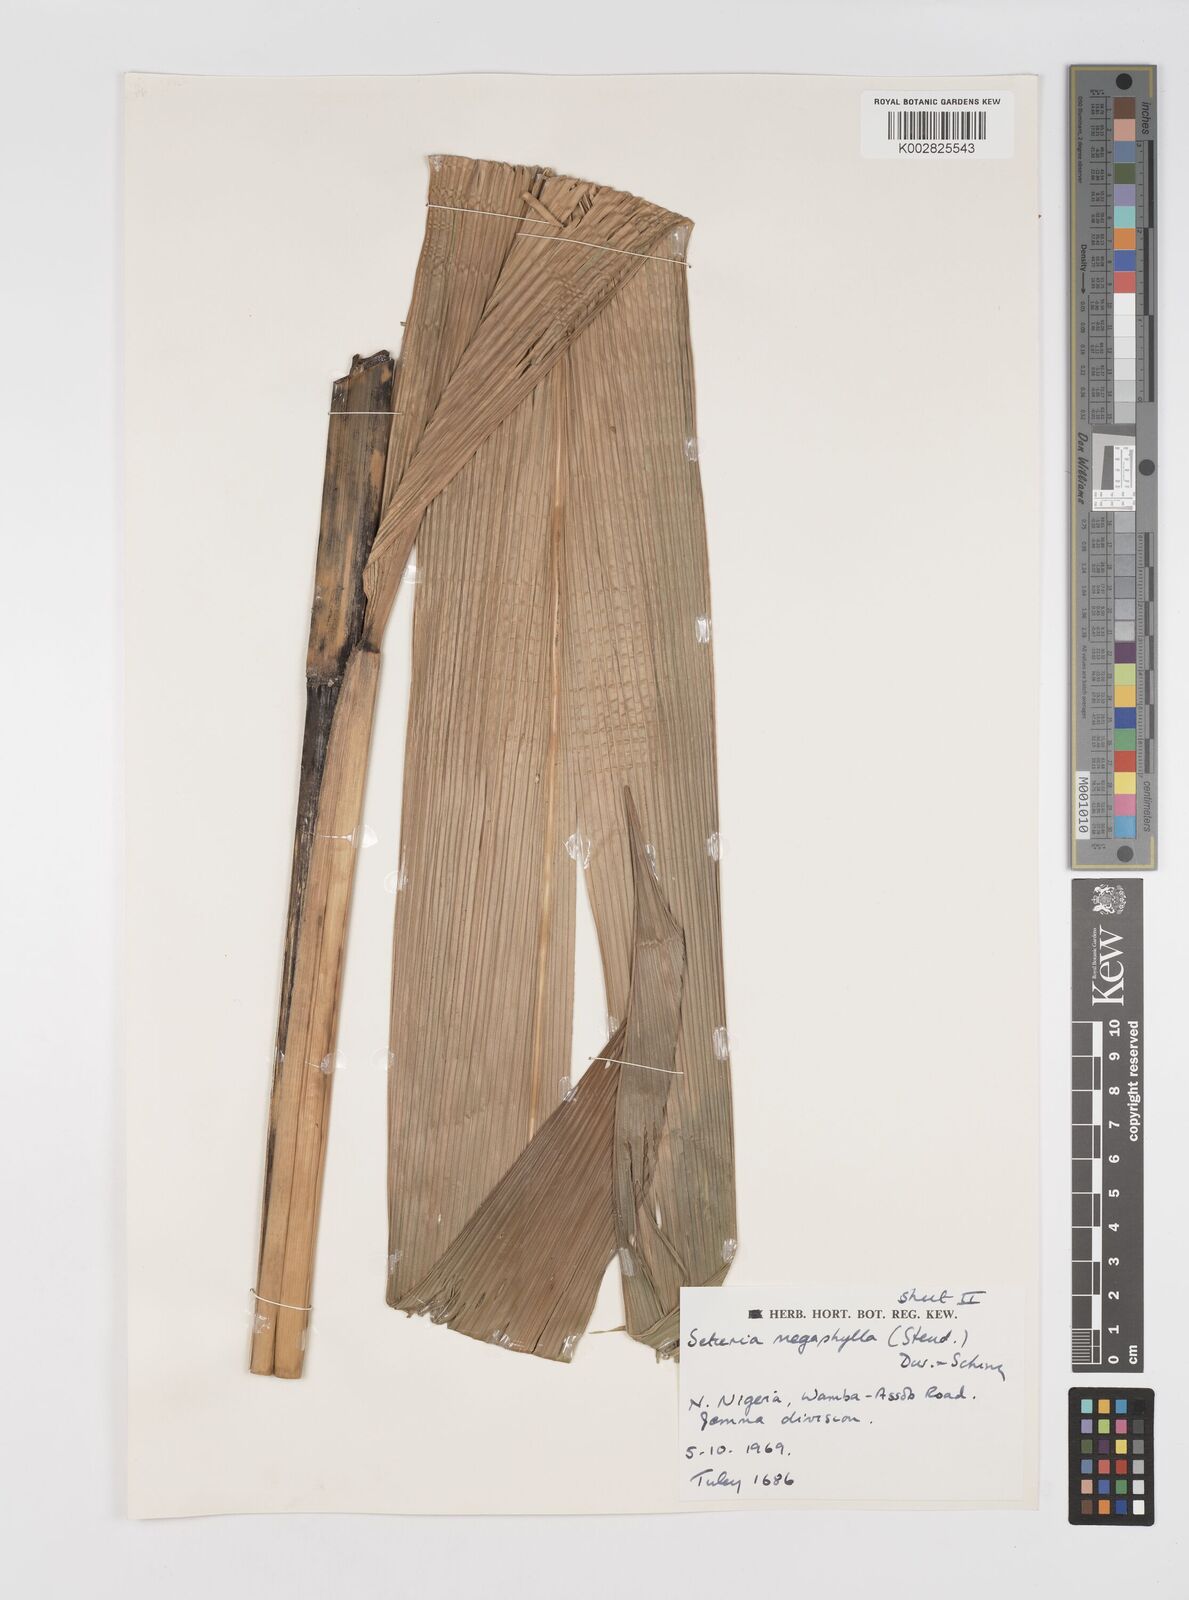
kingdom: Plantae
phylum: Tracheophyta
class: Liliopsida
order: Poales
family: Poaceae
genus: Setaria
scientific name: Setaria megaphylla
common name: Bigleaf bristlegrass
